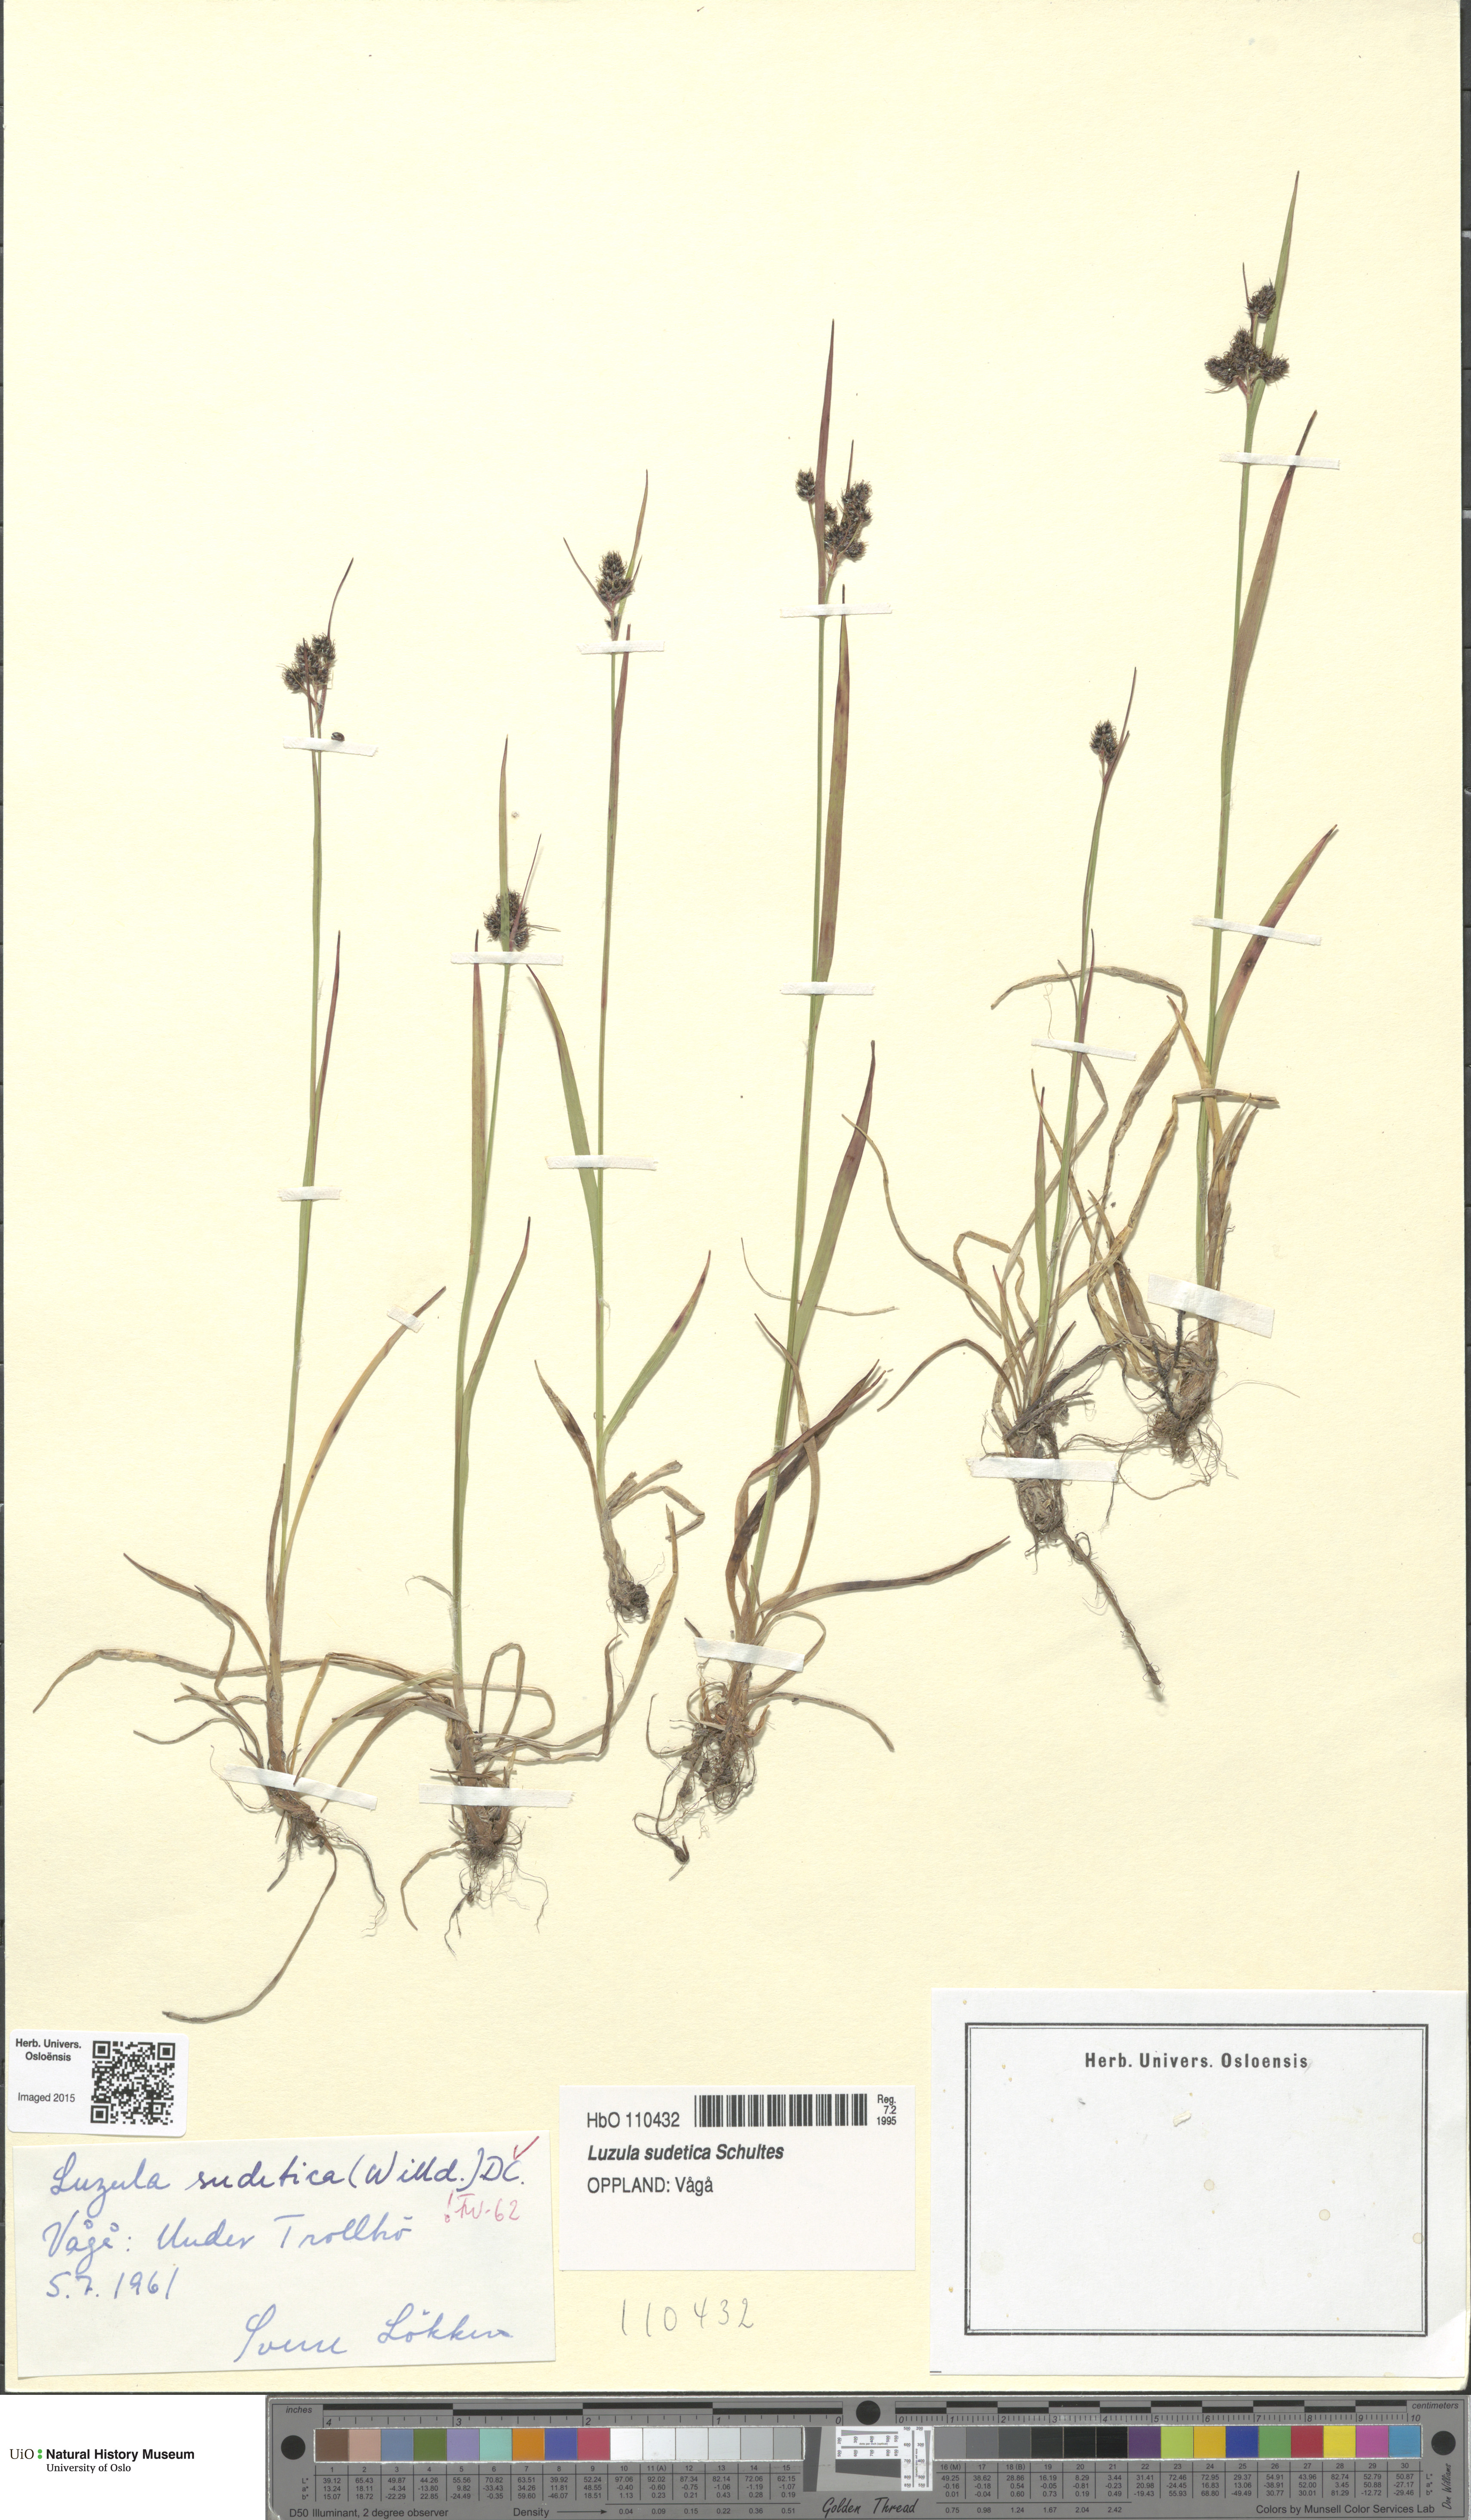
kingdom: Plantae
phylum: Tracheophyta
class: Liliopsida
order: Poales
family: Juncaceae
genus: Luzula
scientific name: Luzula sudetica
